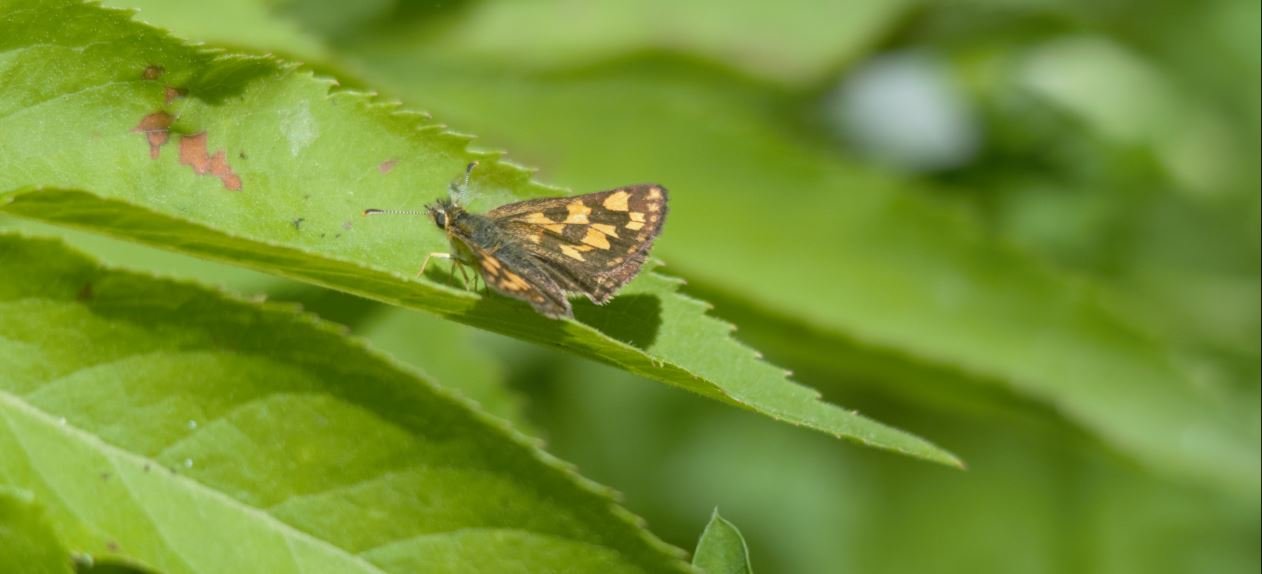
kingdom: Animalia
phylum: Arthropoda
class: Insecta
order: Lepidoptera
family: Hesperiidae
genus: Carterocephalus
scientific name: Carterocephalus palaemon
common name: Chequered Skipper
